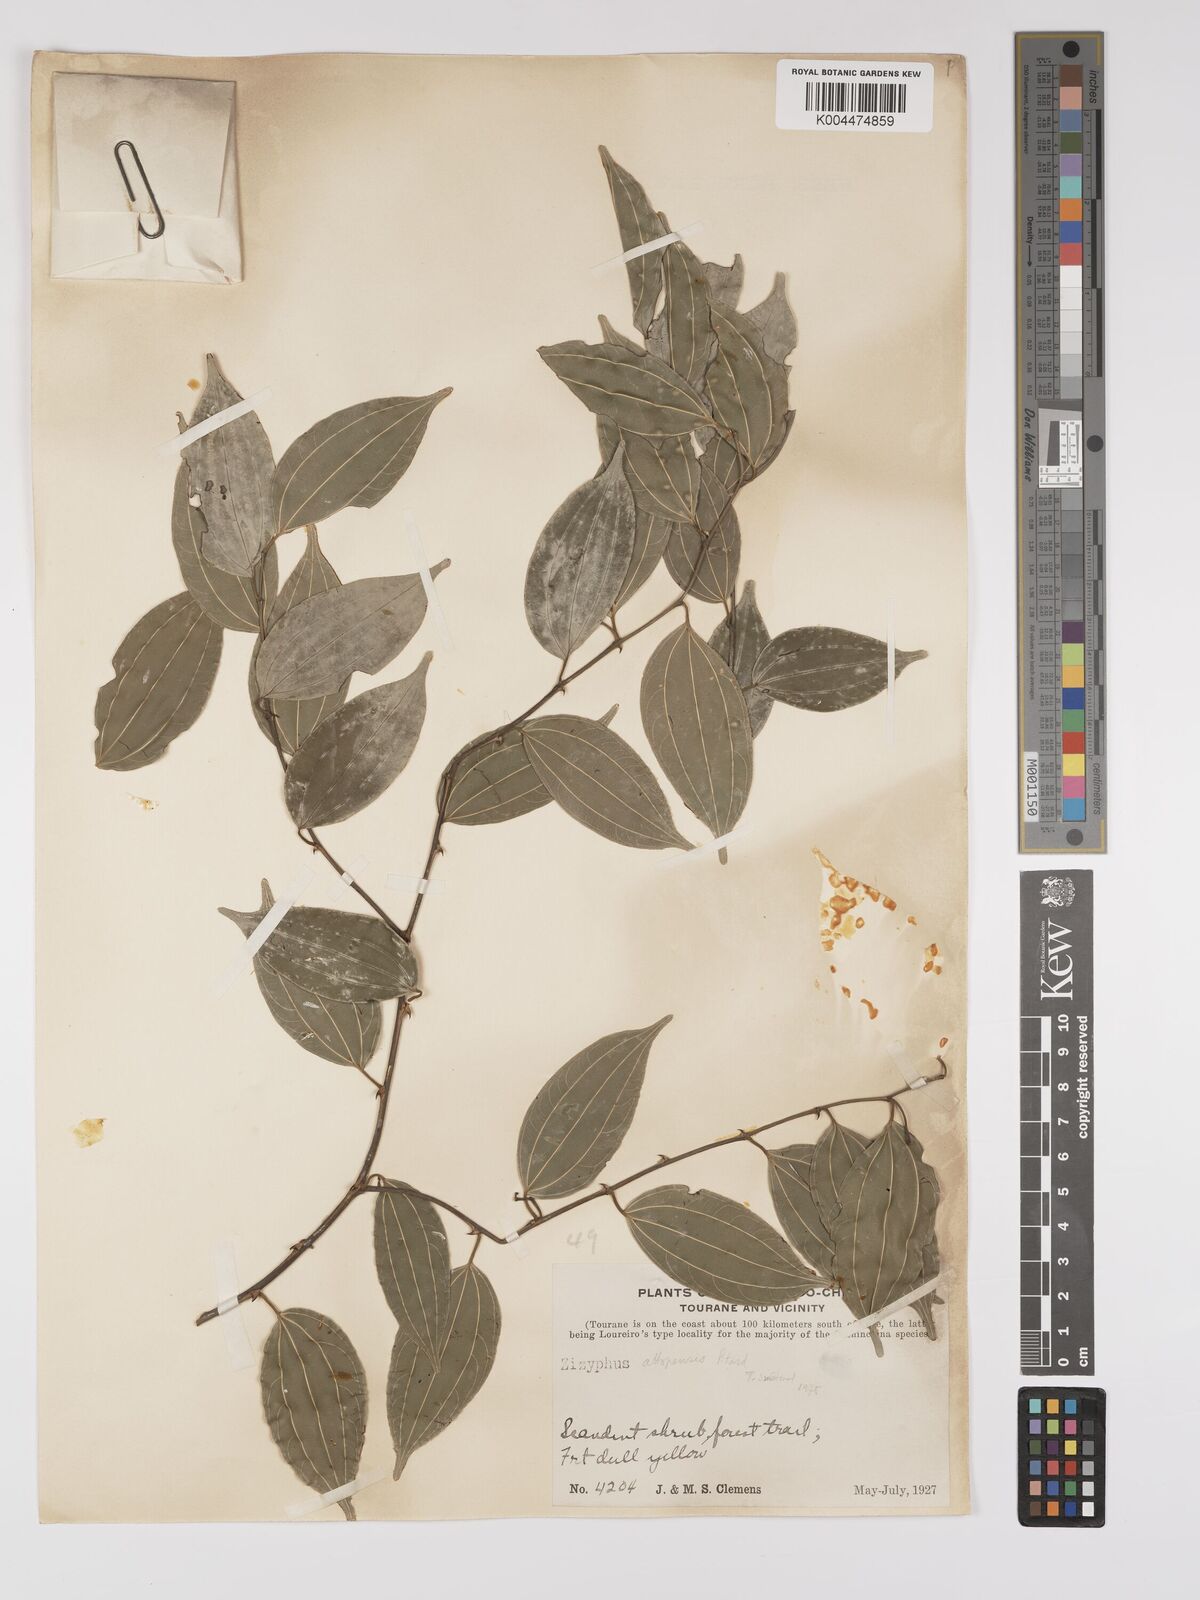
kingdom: Plantae
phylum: Tracheophyta
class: Magnoliopsida
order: Rosales
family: Rhamnaceae
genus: Ziziphus
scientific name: Ziziphus
